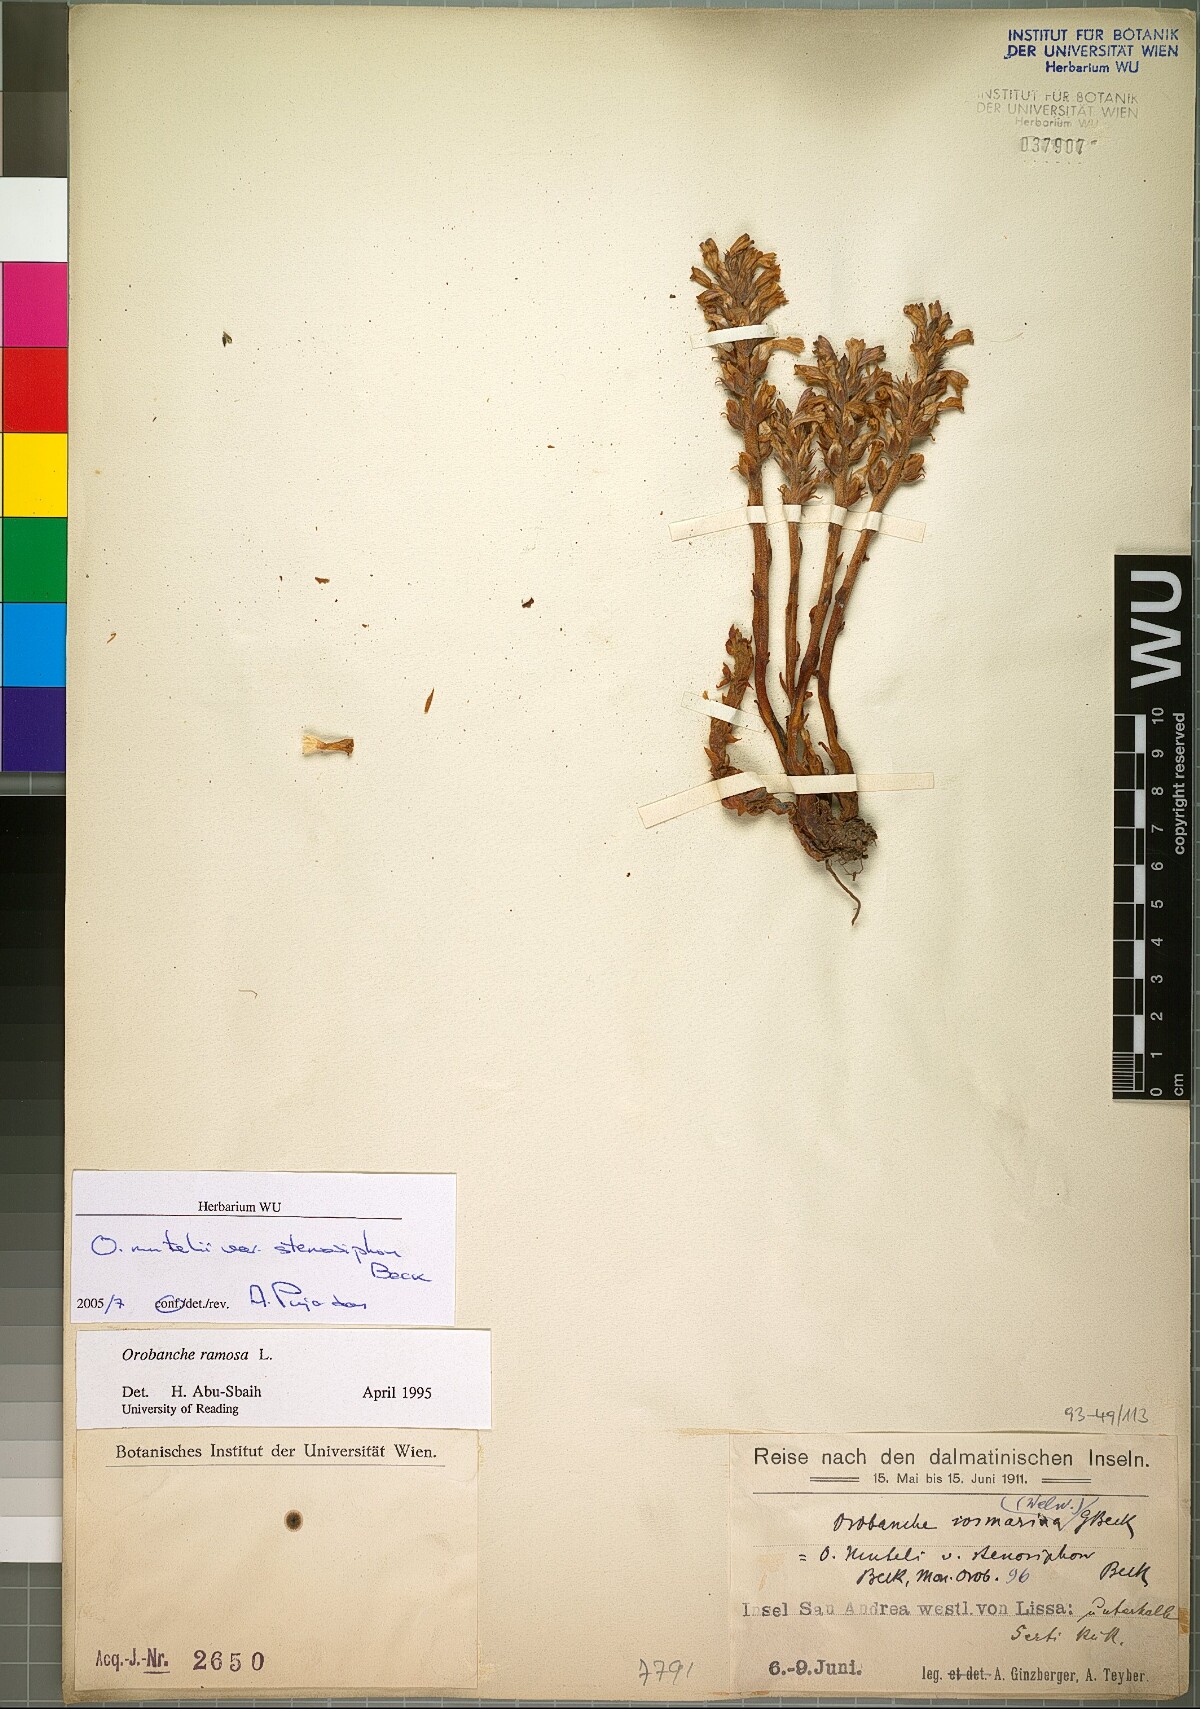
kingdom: Plantae
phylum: Tracheophyta
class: Magnoliopsida
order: Lamiales
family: Orobanchaceae
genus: Phelipanche
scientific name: Phelipanche pseudorosmarina
